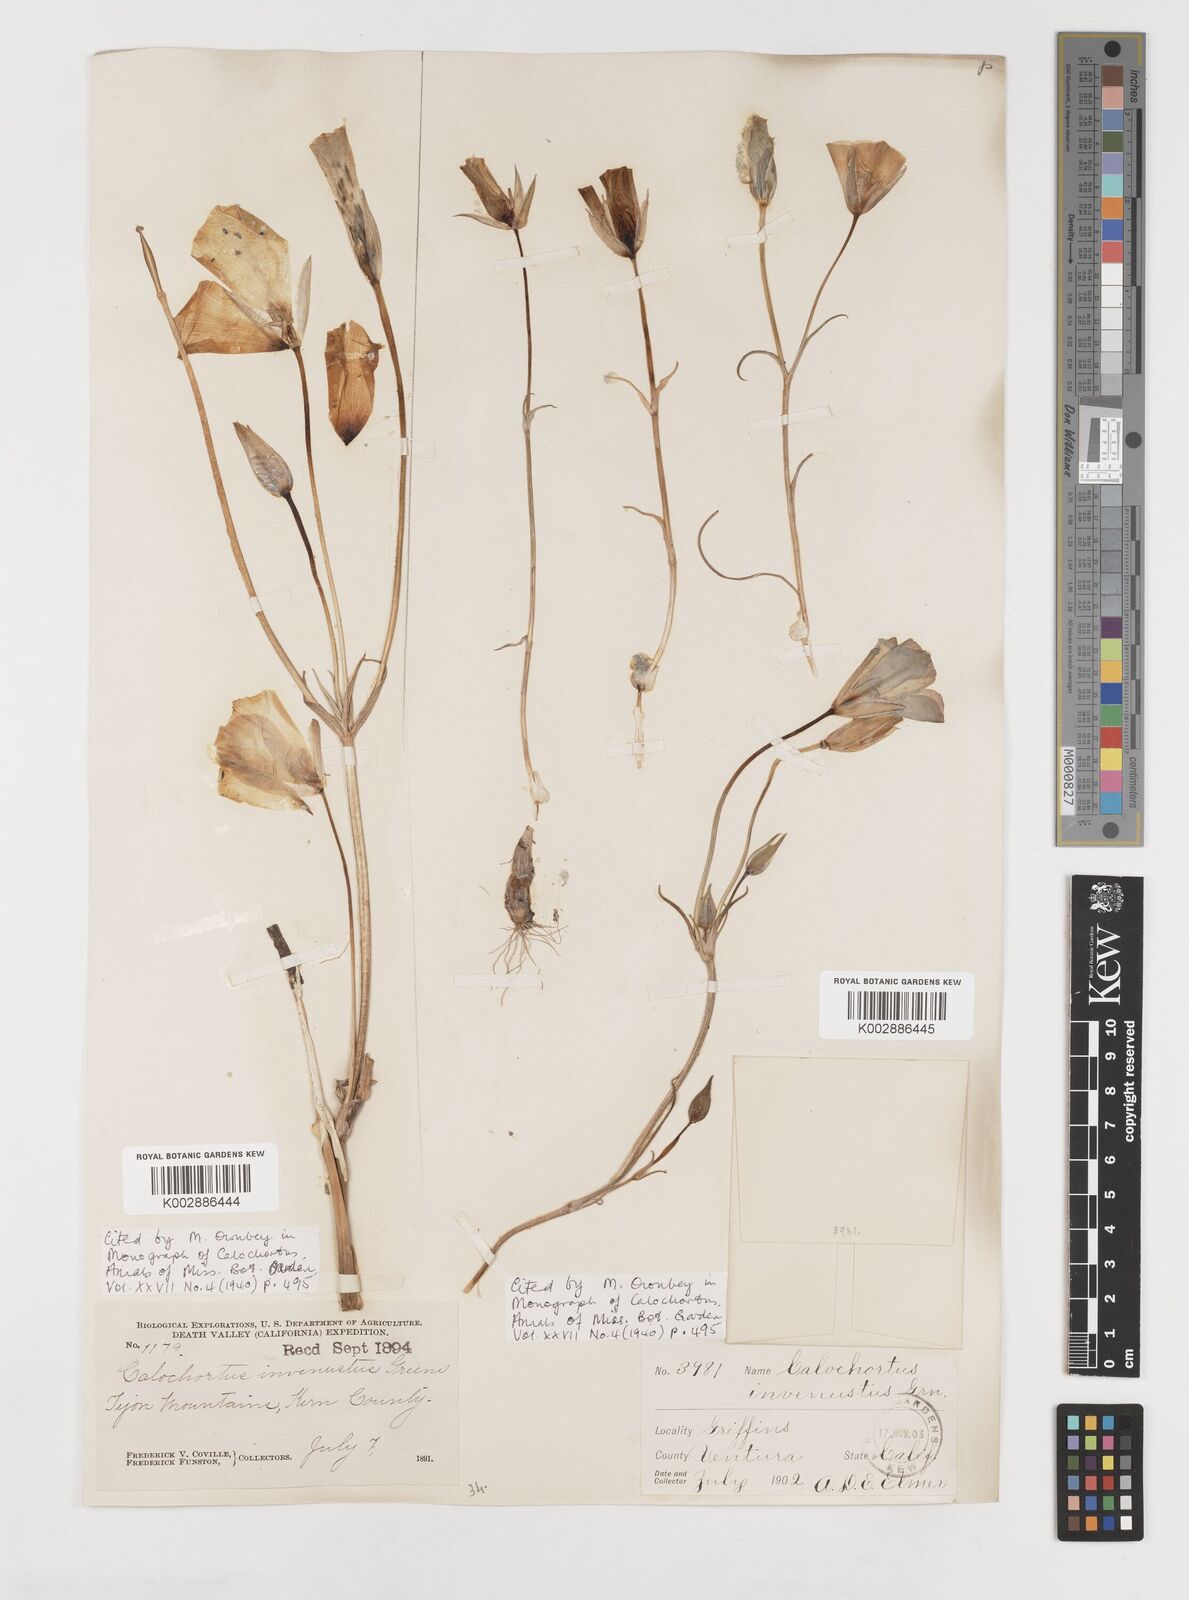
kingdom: Plantae
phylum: Tracheophyta
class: Liliopsida
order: Liliales
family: Liliaceae
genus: Calochortus
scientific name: Calochortus invenustus
